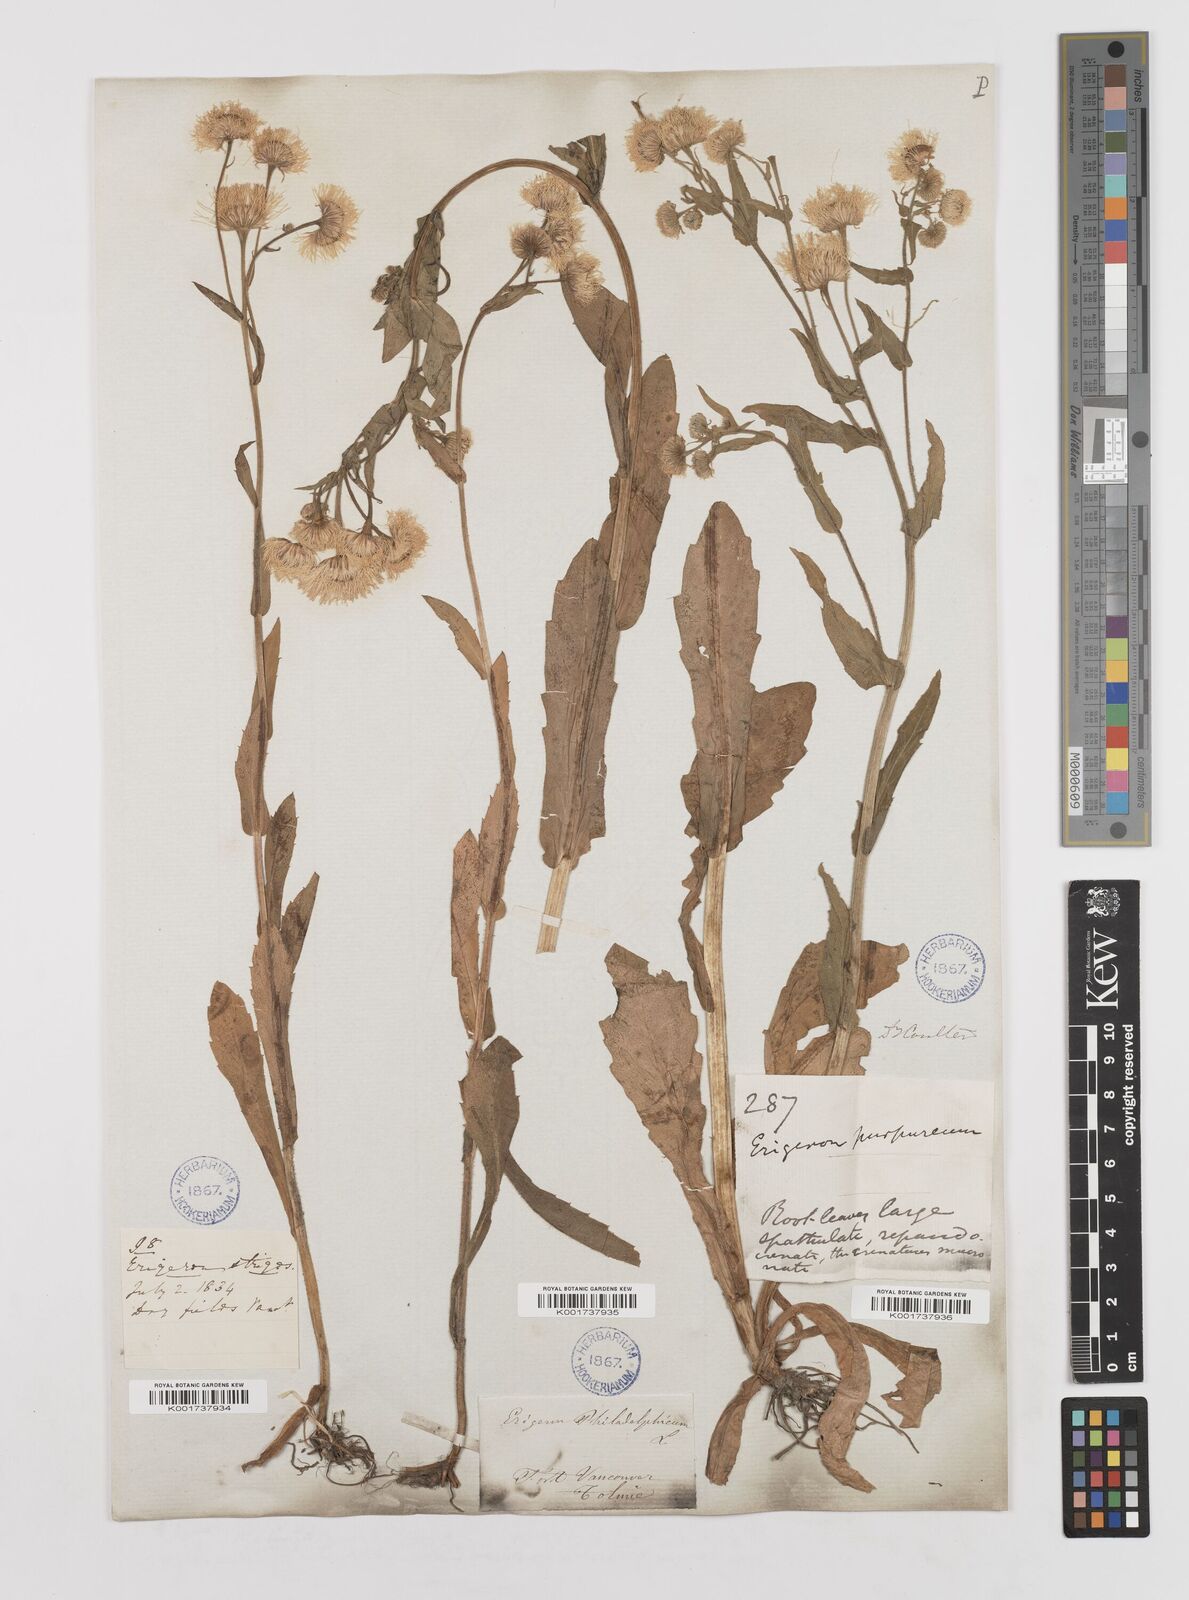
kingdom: Plantae
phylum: Tracheophyta
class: Magnoliopsida
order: Asterales
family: Asteraceae
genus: Erigeron
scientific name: Erigeron philadelphicus
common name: Robin's-plantain
